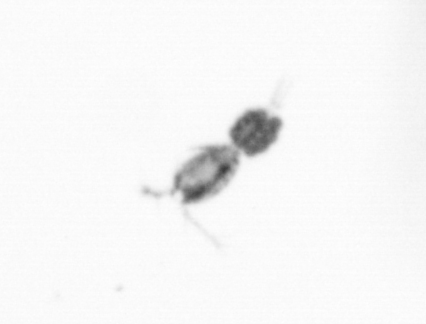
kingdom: Animalia
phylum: Arthropoda
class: Copepoda
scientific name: Copepoda
